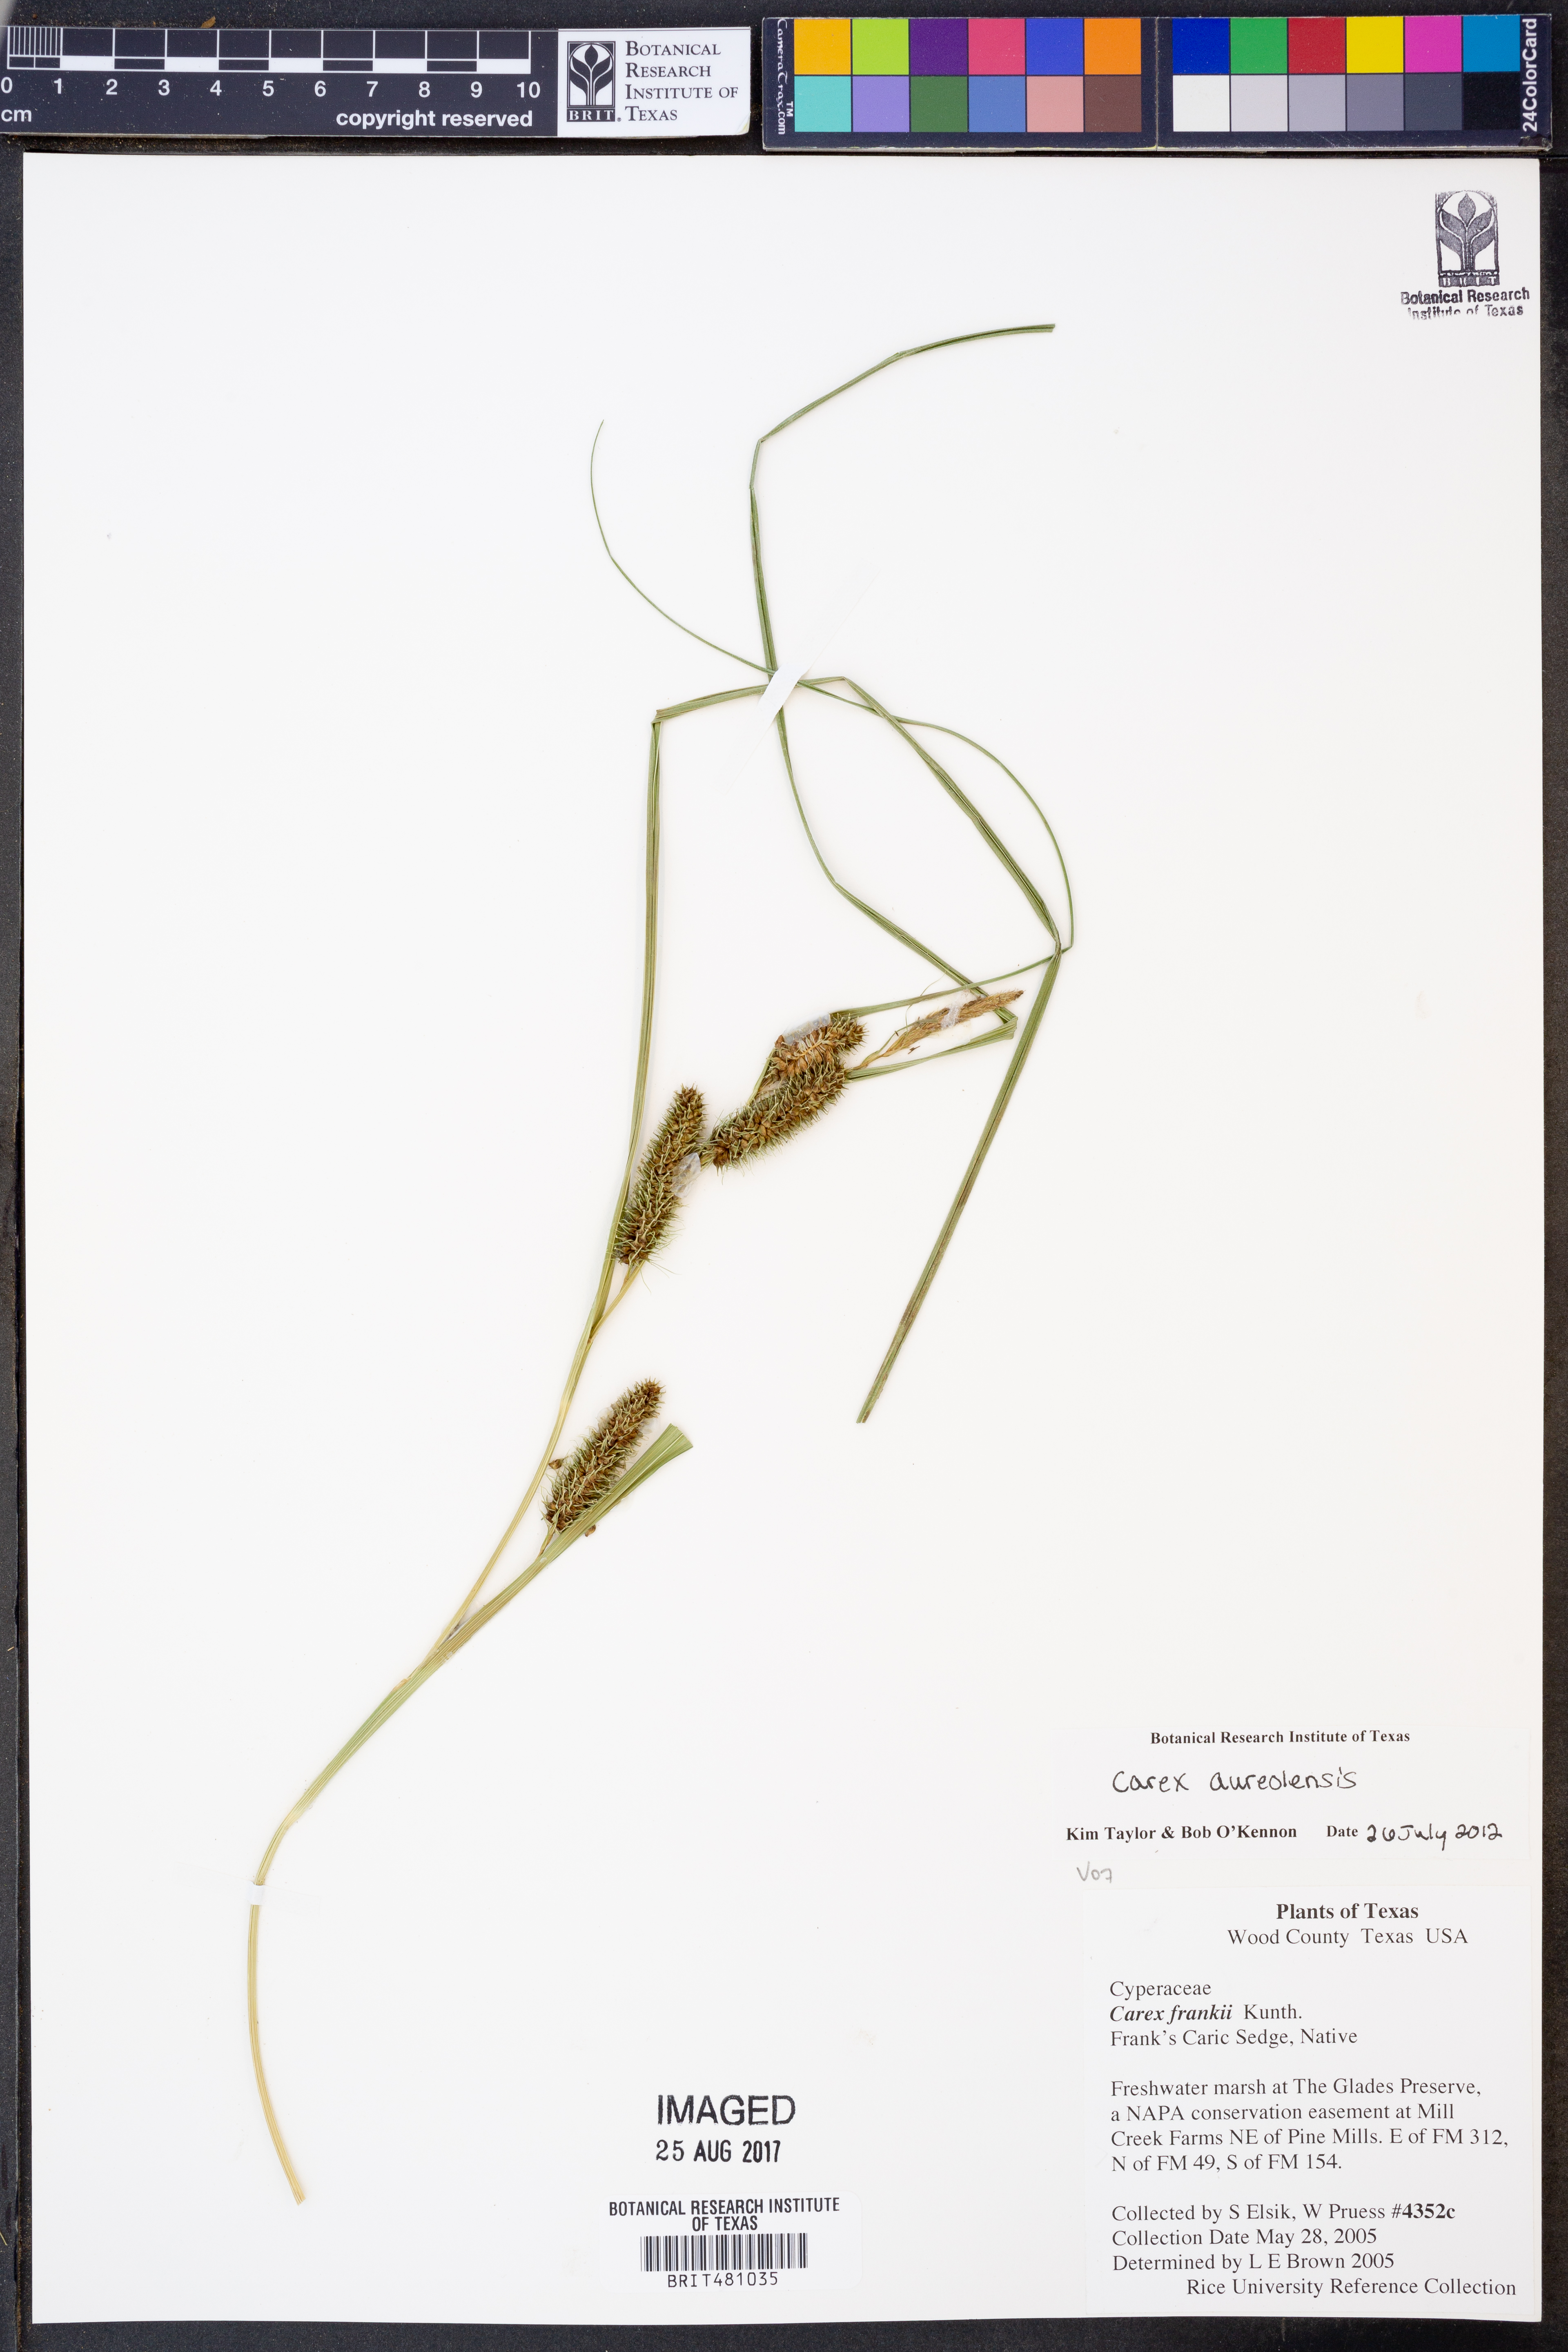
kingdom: Plantae
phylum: Tracheophyta
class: Liliopsida
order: Poales
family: Cyperaceae
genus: Carex
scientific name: Carex aureolensis
